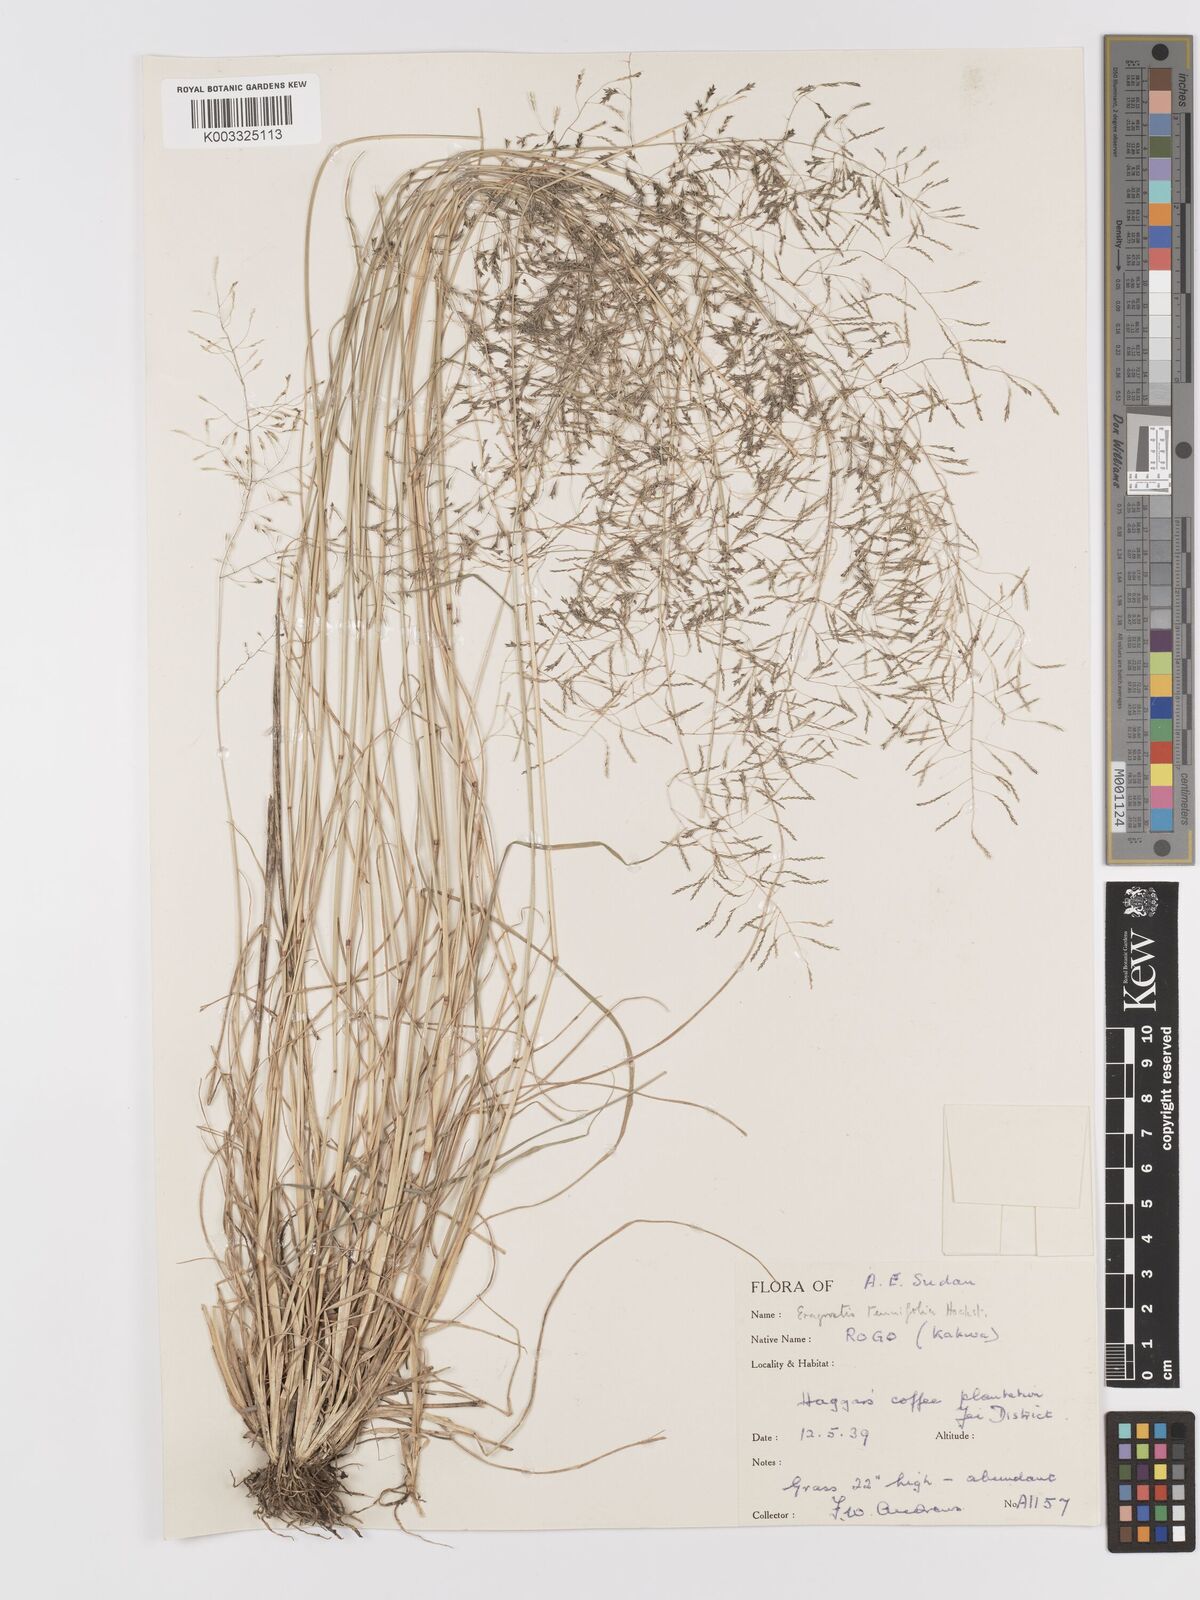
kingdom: Plantae
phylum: Tracheophyta
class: Liliopsida
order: Poales
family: Poaceae
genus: Eragrostis
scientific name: Eragrostis tenuifolia
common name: Elastic grass
